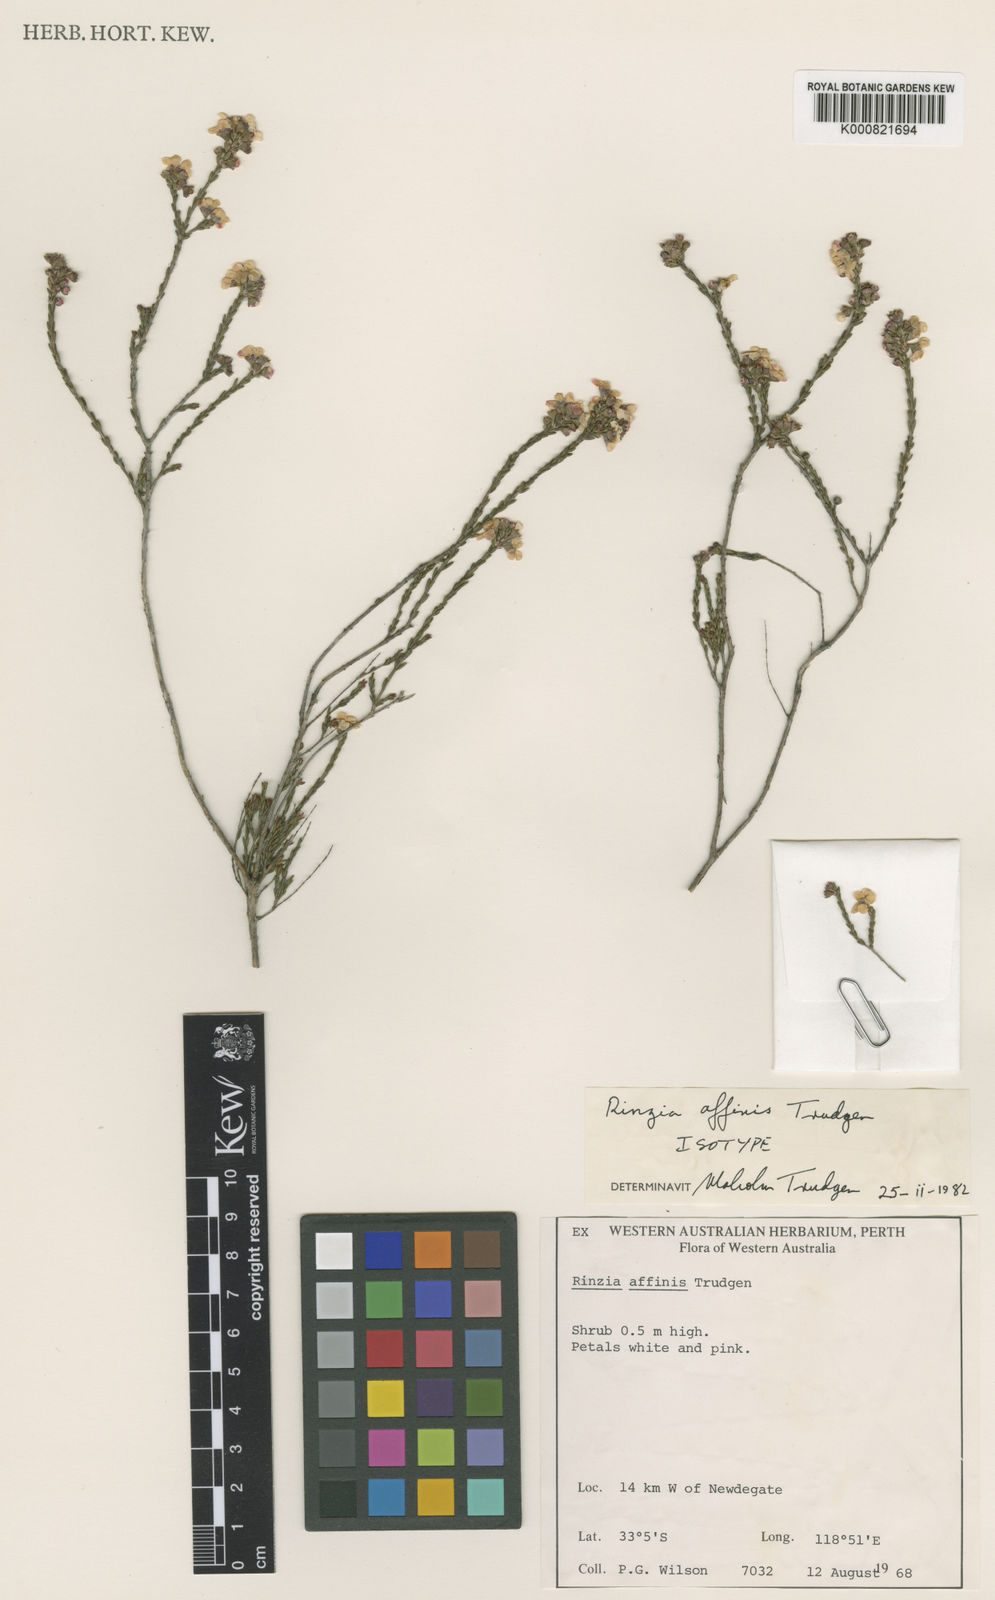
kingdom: Plantae
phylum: Tracheophyta
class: Magnoliopsida
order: Myrtales
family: Myrtaceae
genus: Rinzia
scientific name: Rinzia affinis
